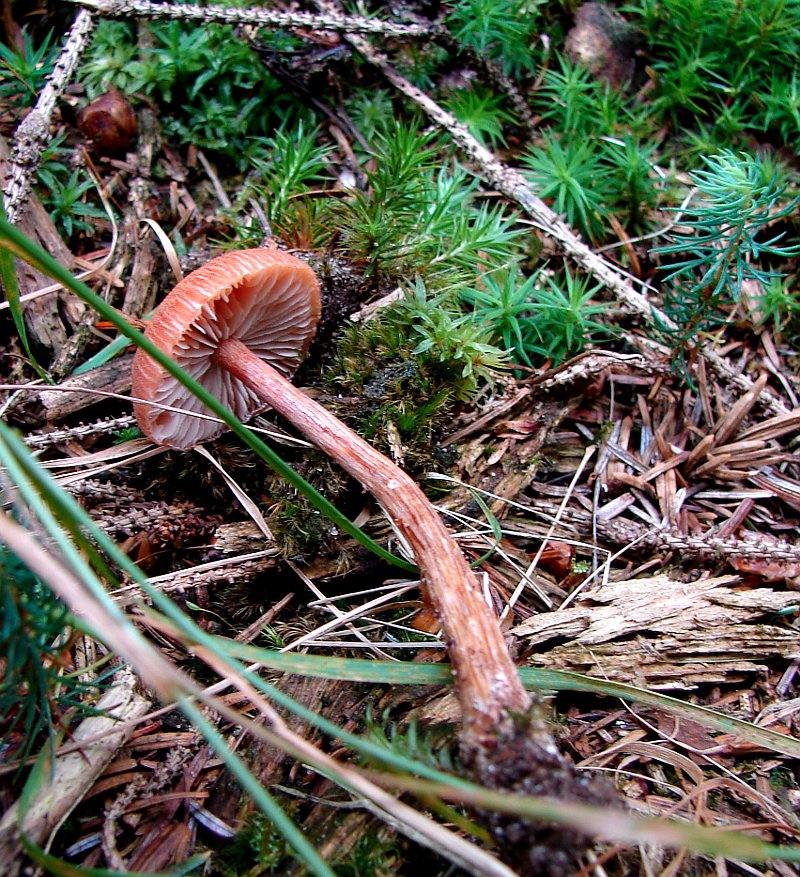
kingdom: Fungi
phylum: Basidiomycota
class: Agaricomycetes
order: Agaricales
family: Hydnangiaceae
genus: Laccaria
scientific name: Laccaria proxima
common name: stor ametysthat
